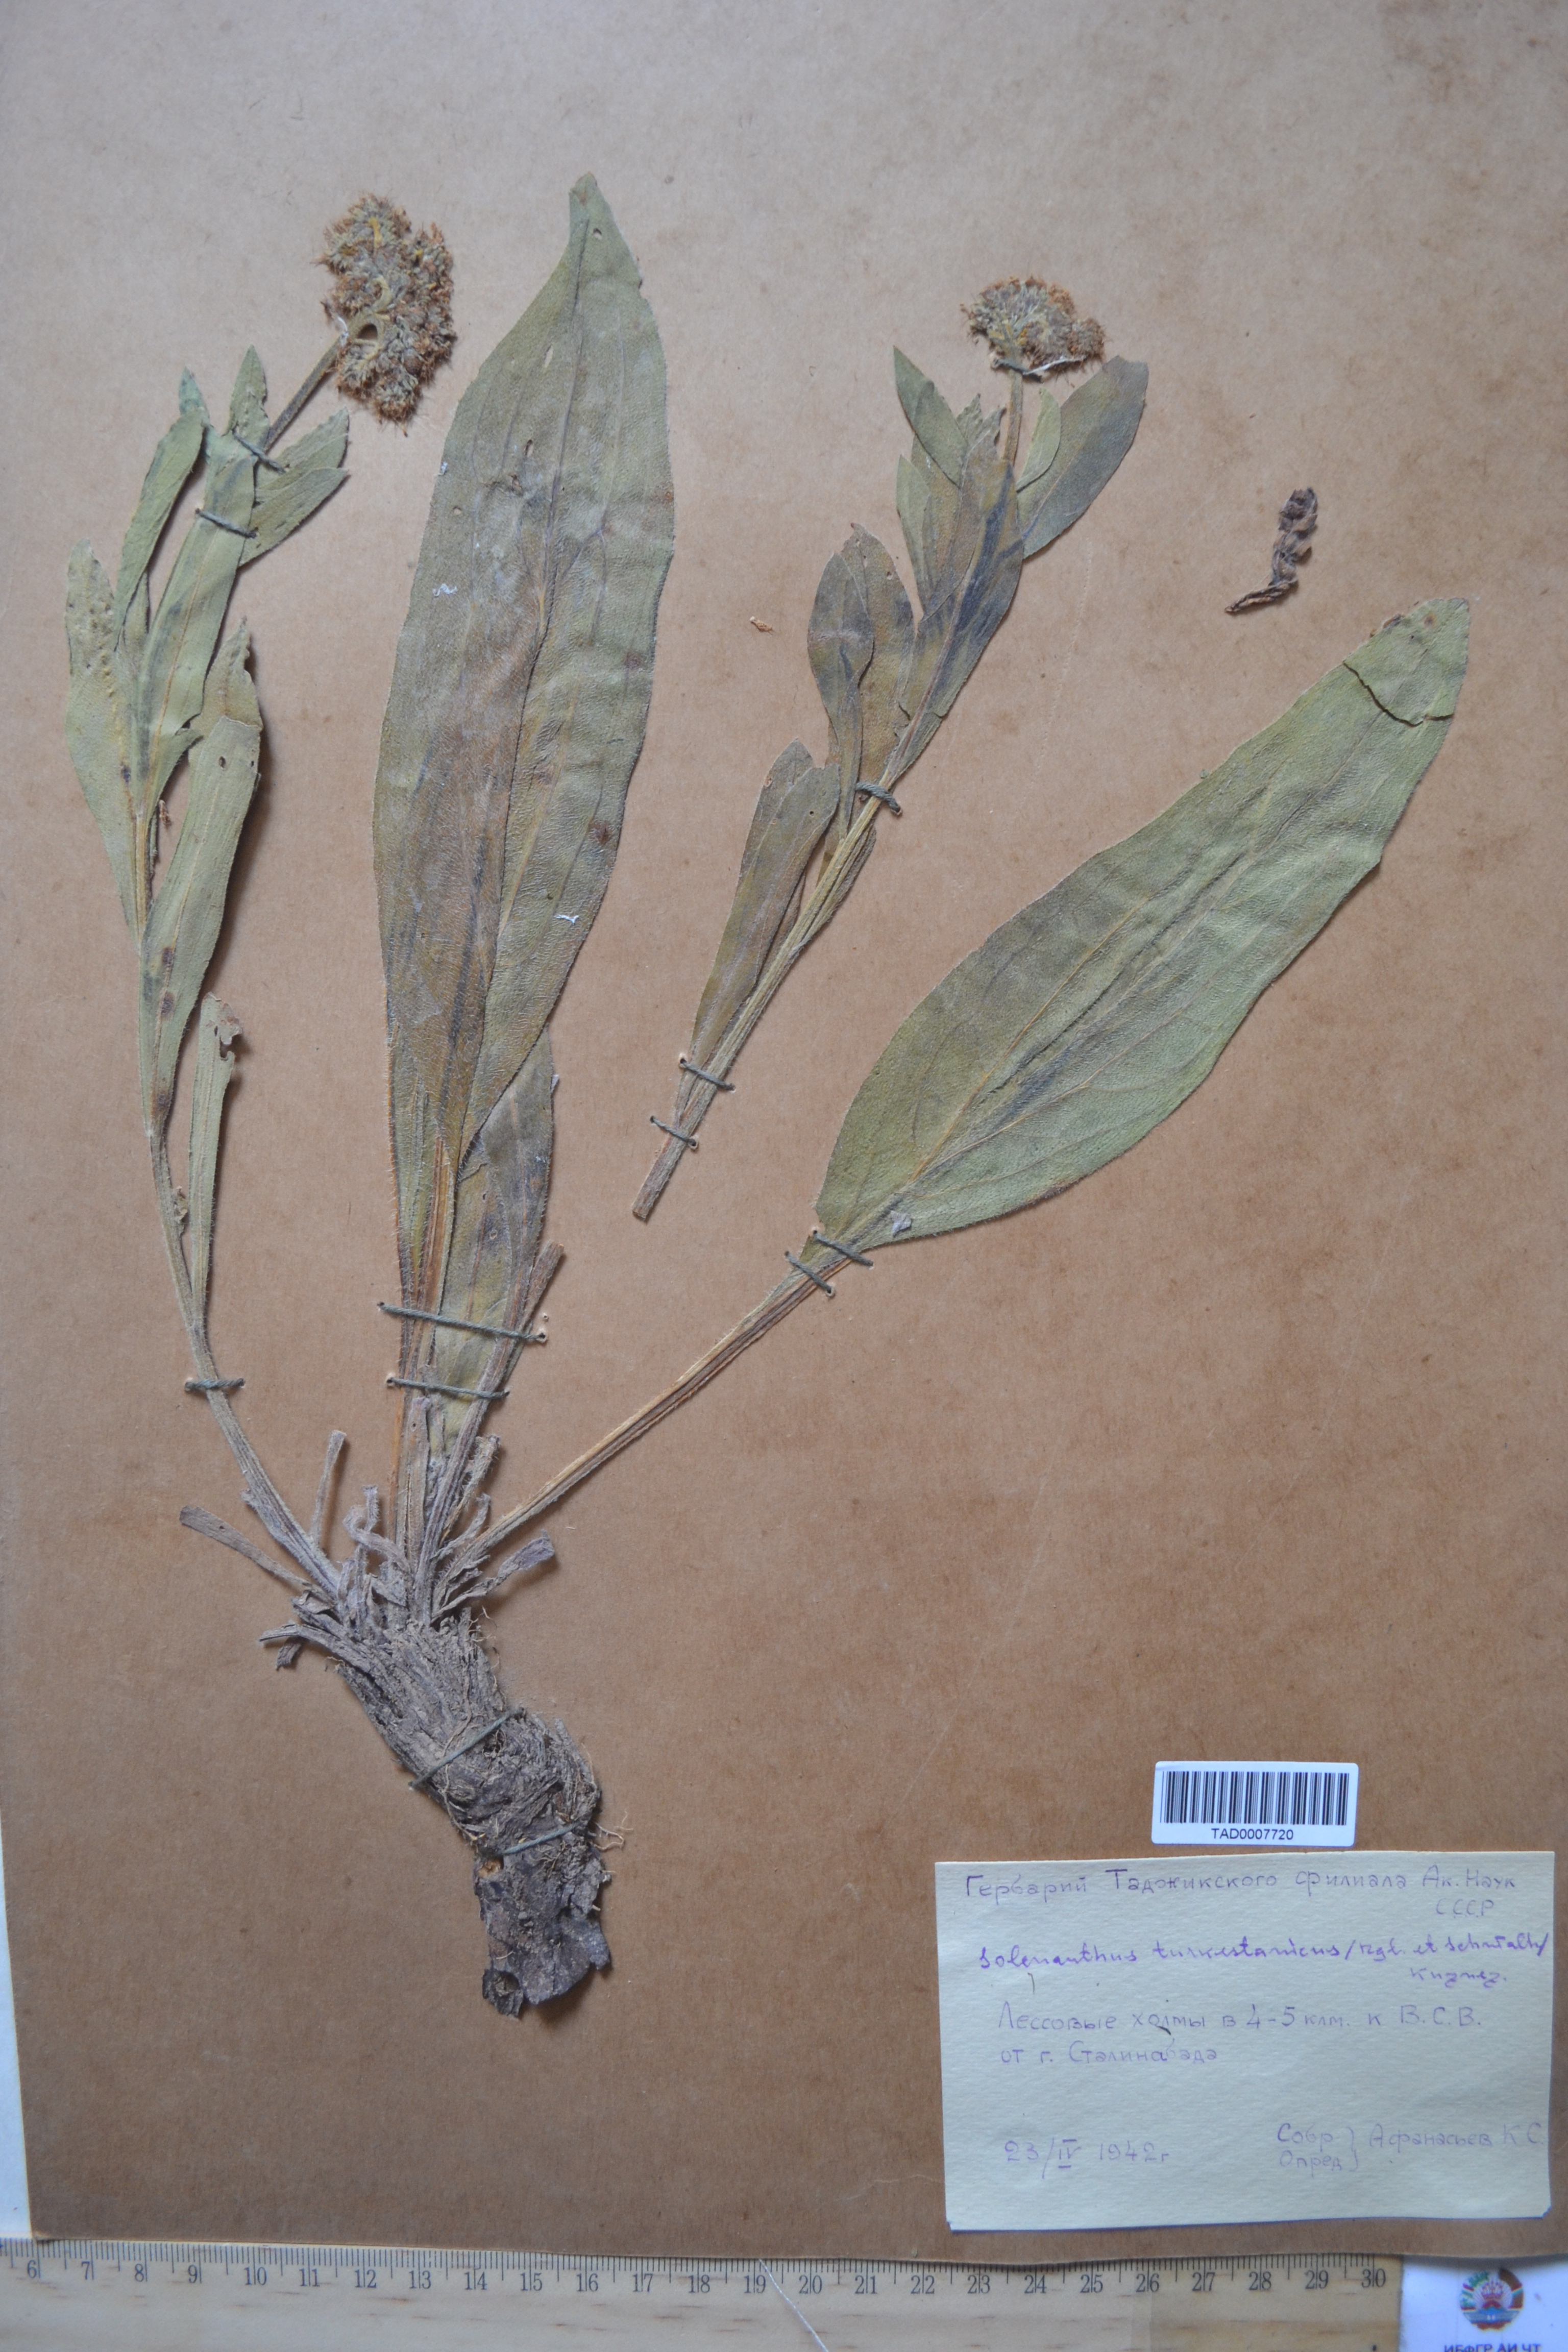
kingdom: Plantae
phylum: Tracheophyta
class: Magnoliopsida
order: Boraginales
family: Boraginaceae
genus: Solenanthus
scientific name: Solenanthus turkestanicus
